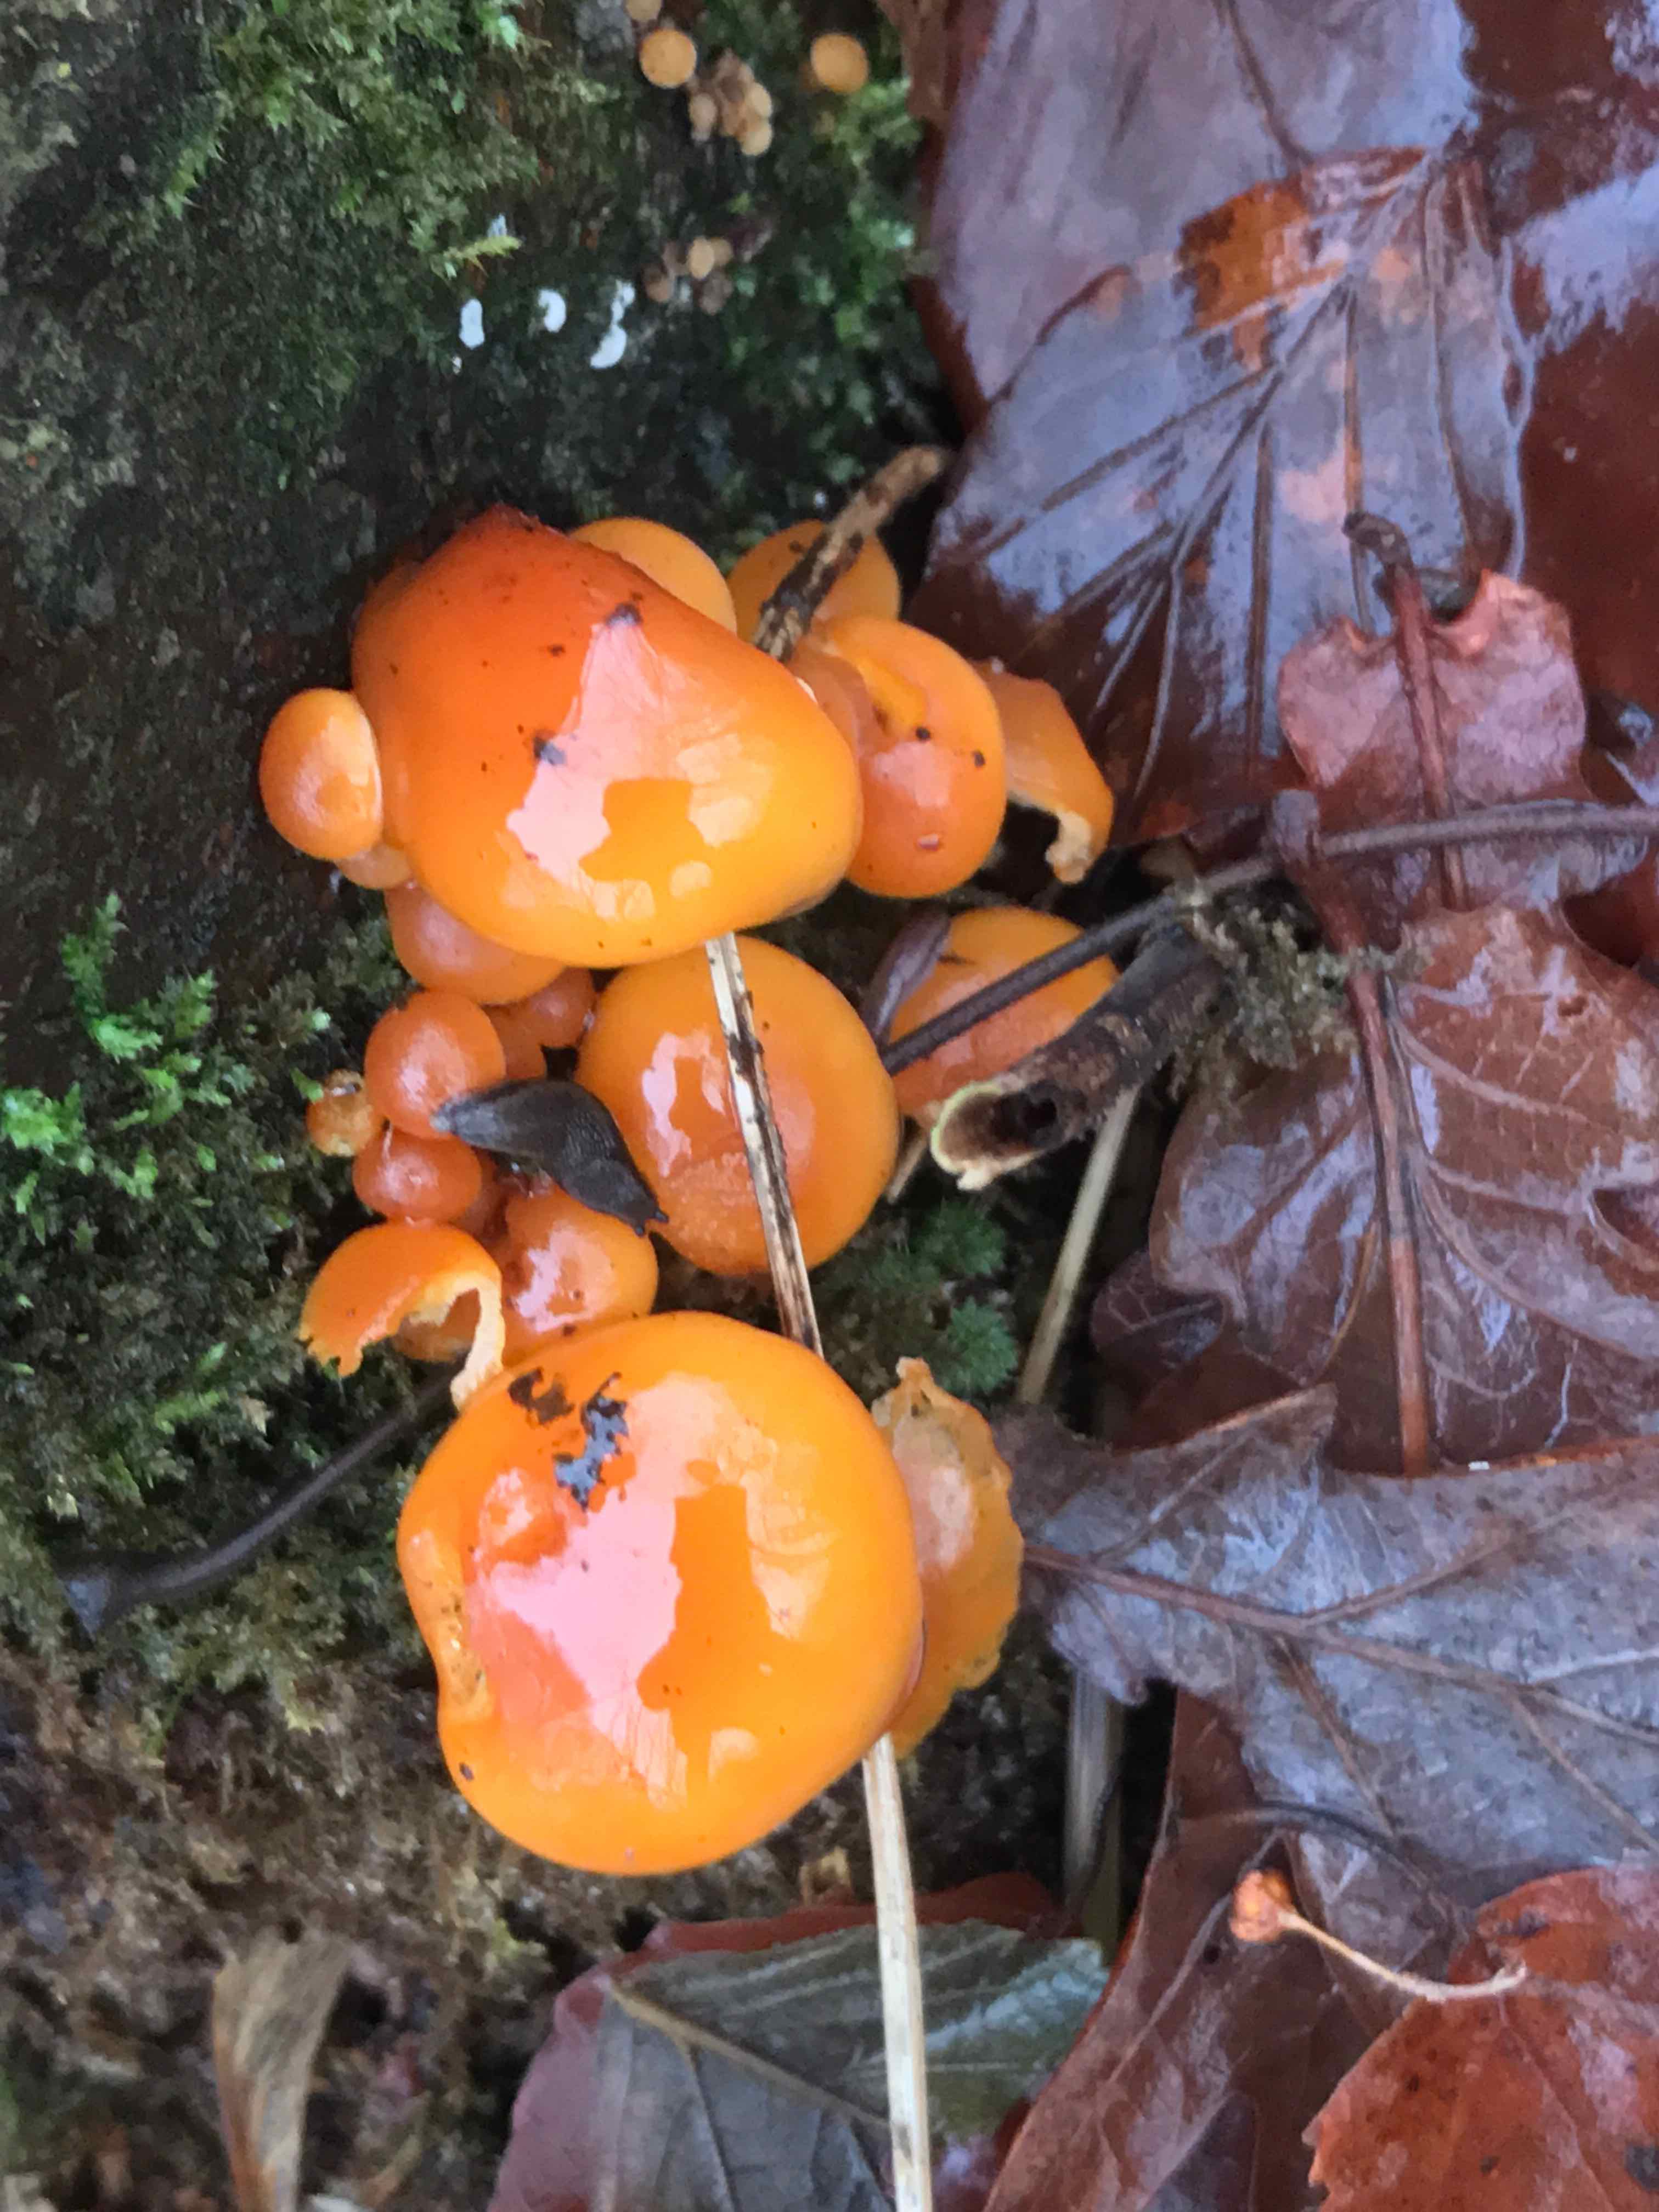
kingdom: Fungi
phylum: Basidiomycota
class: Agaricomycetes
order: Agaricales
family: Physalacriaceae
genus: Flammulina
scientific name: Flammulina velutipes
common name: gul fløjlsfod
